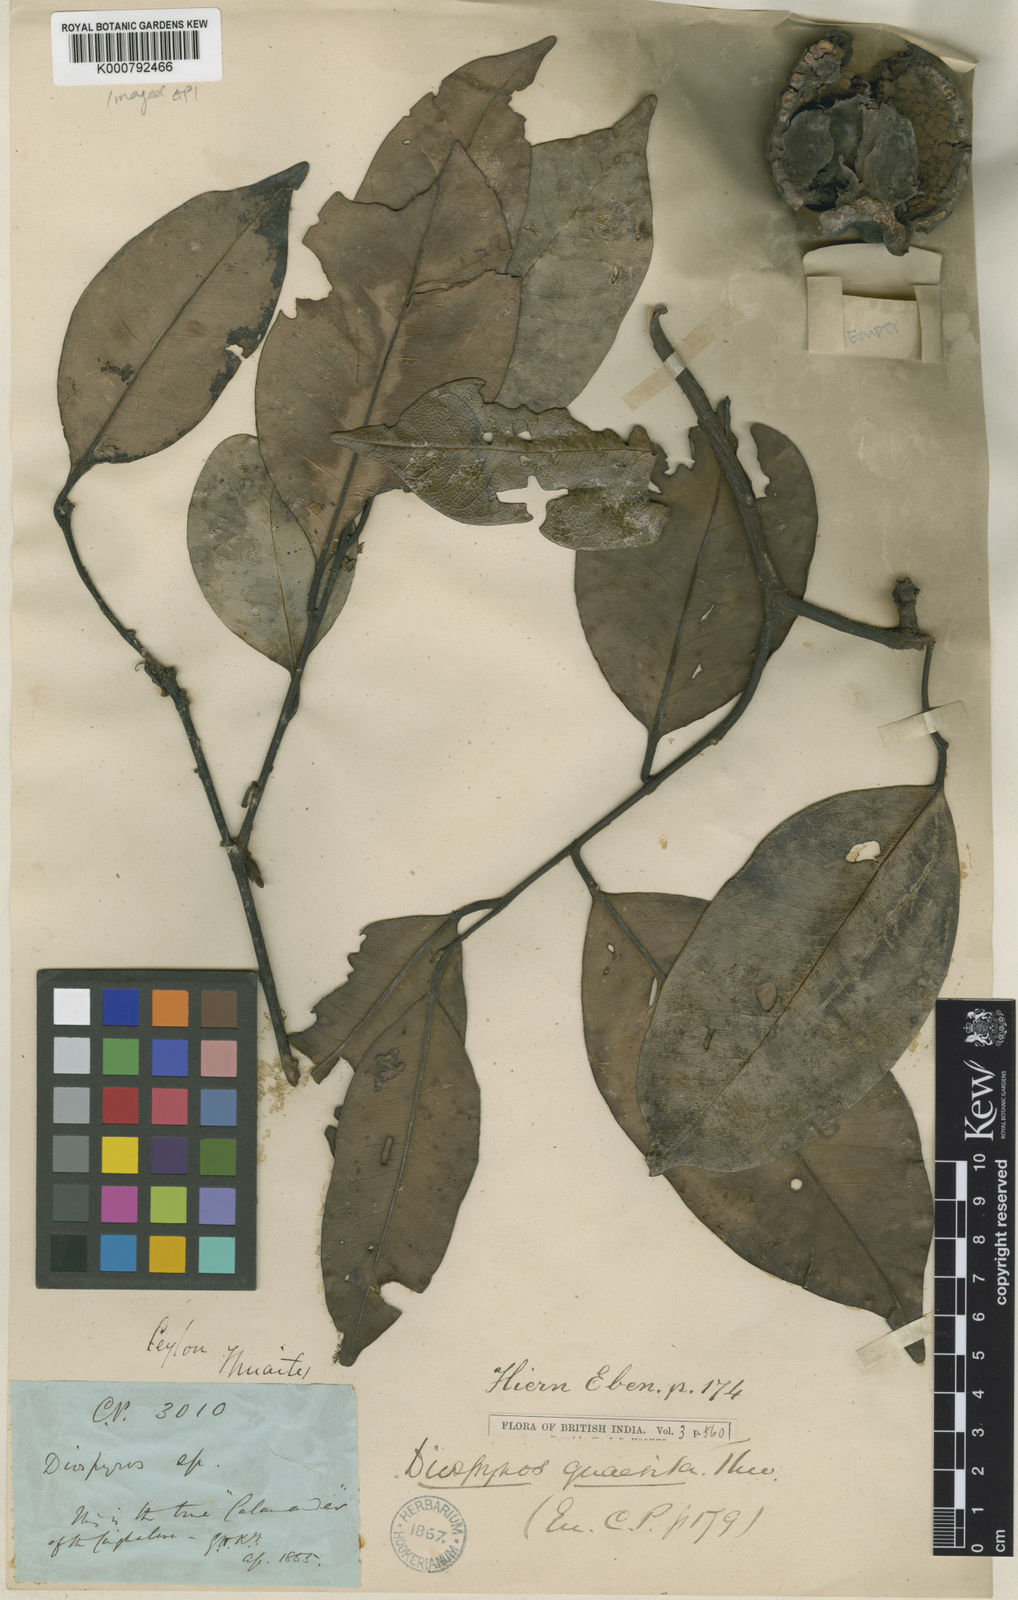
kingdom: Plantae
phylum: Tracheophyta
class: Magnoliopsida
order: Ericales
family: Ebenaceae
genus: Diospyros
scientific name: Diospyros quaesita
